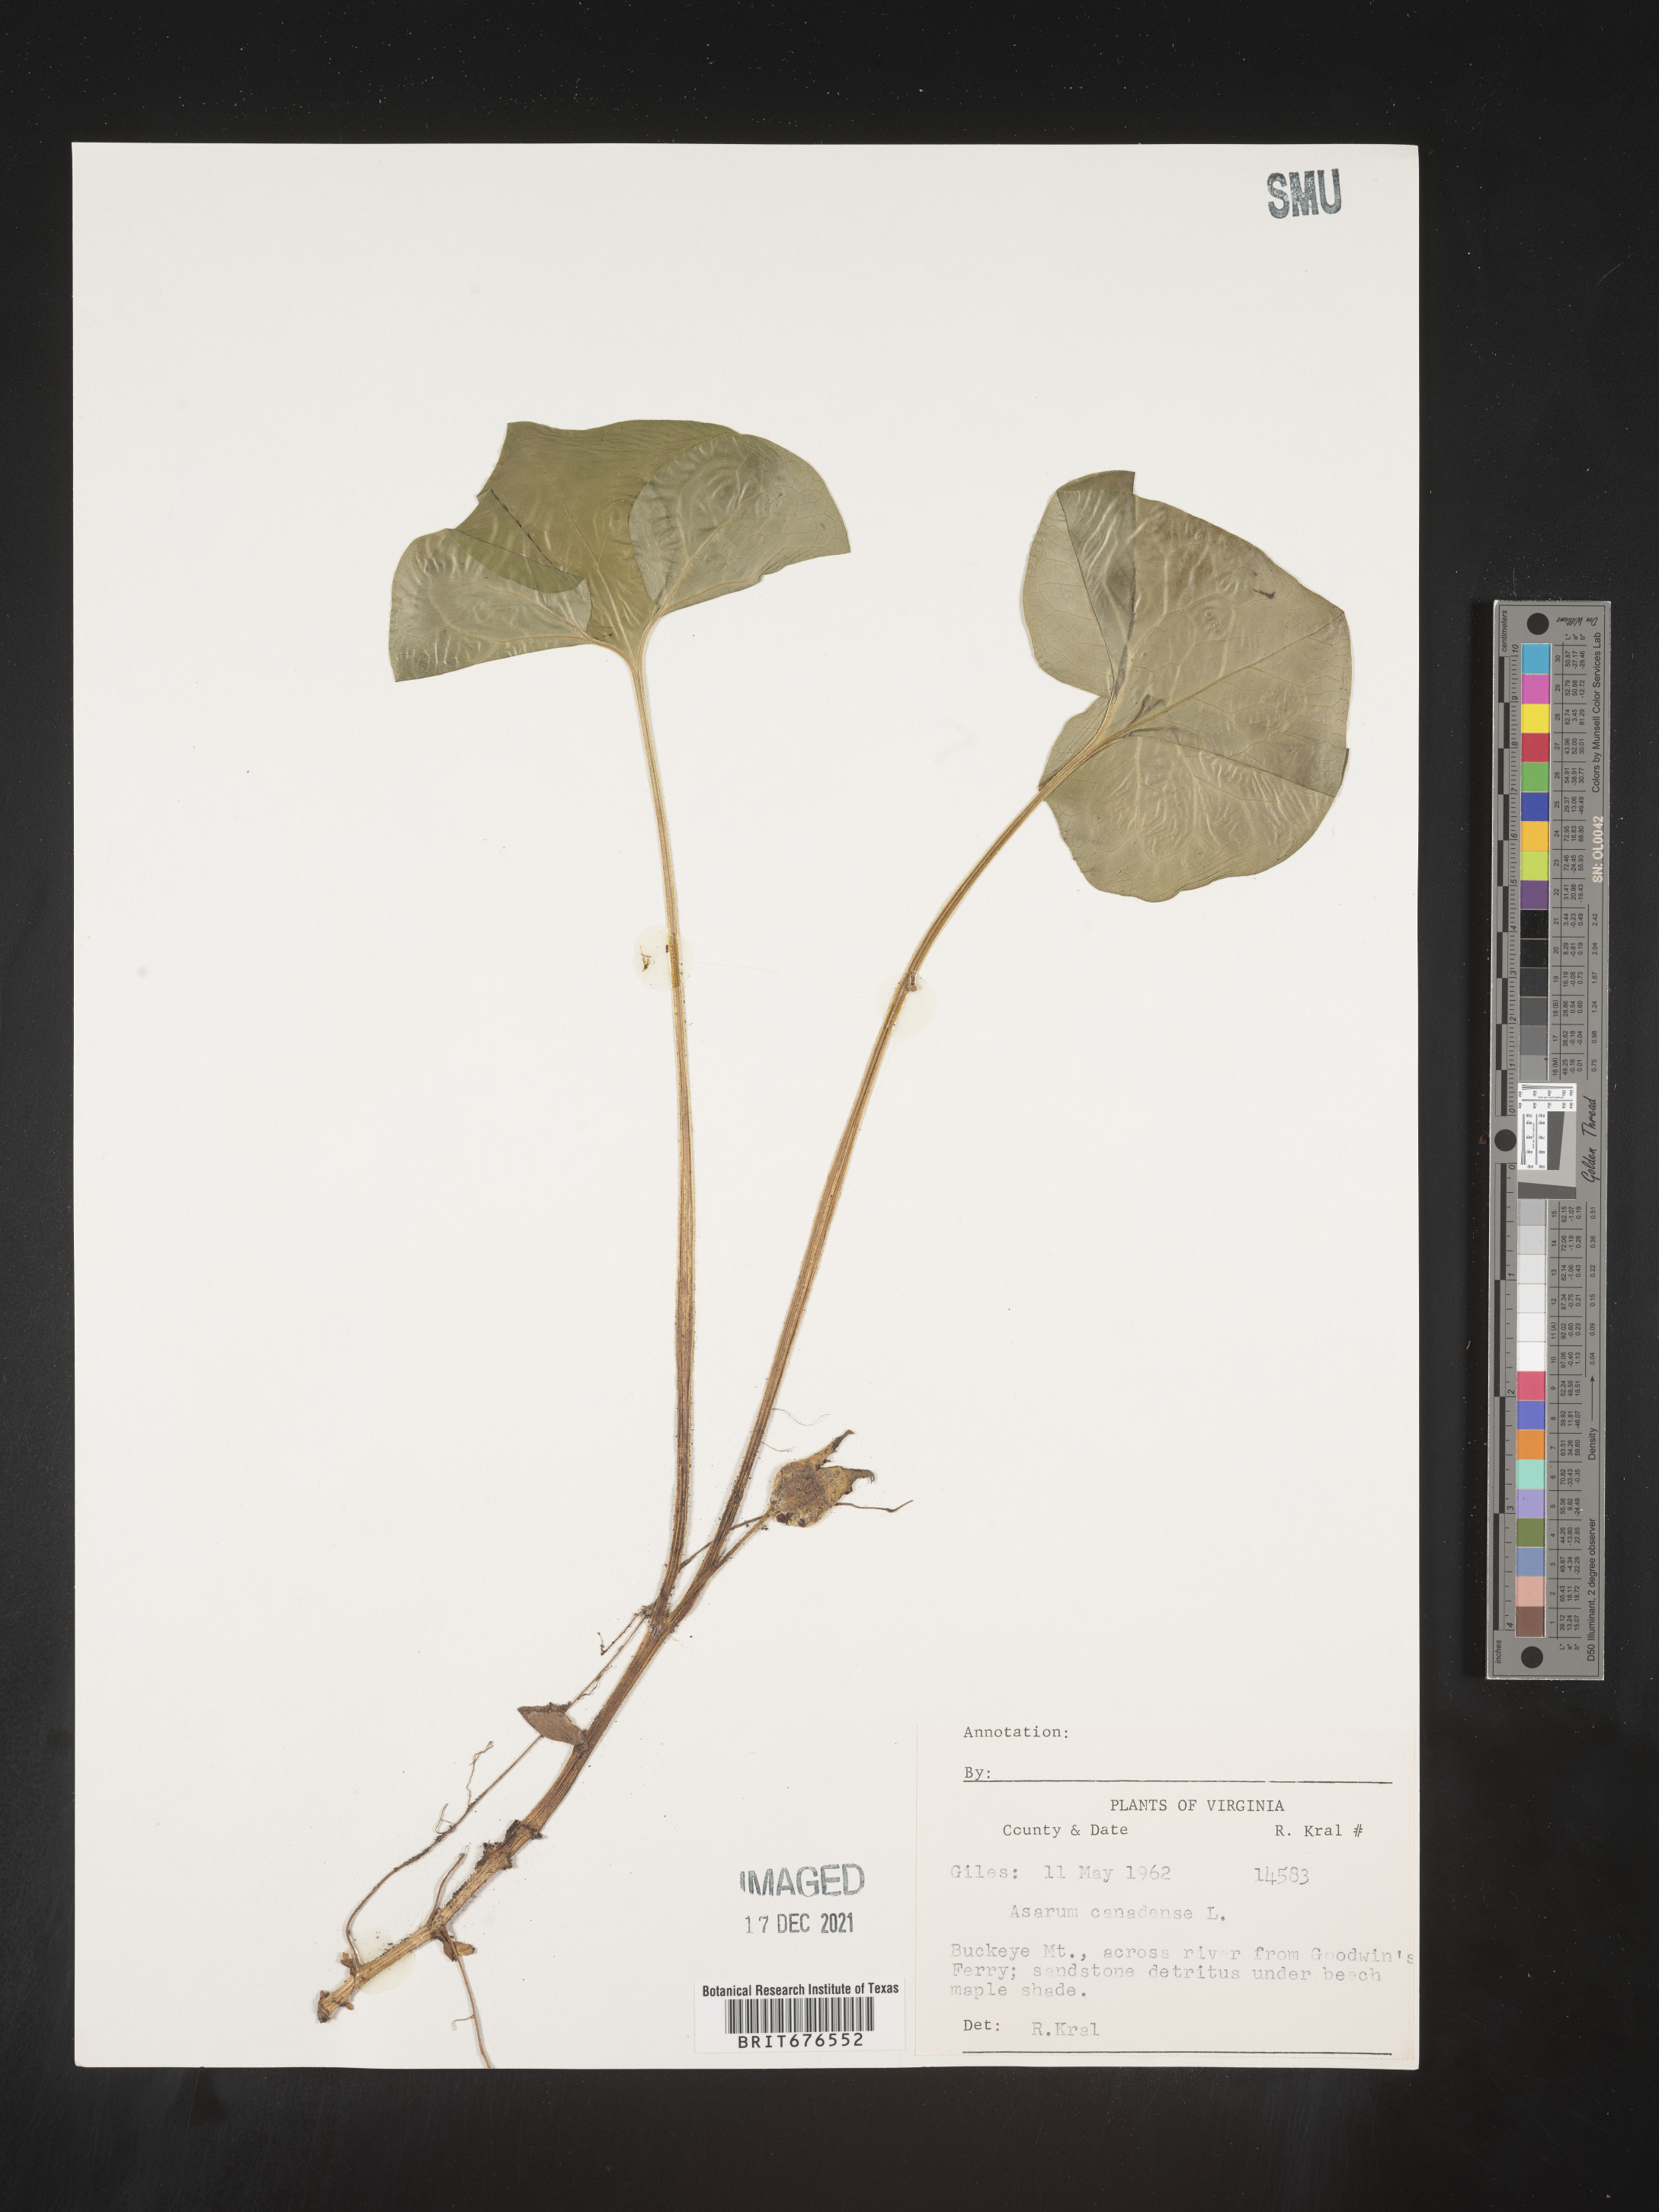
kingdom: Plantae
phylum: Tracheophyta
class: Magnoliopsida
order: Piperales
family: Aristolochiaceae
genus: Asarum
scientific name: Asarum canadense
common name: Wild ginger
